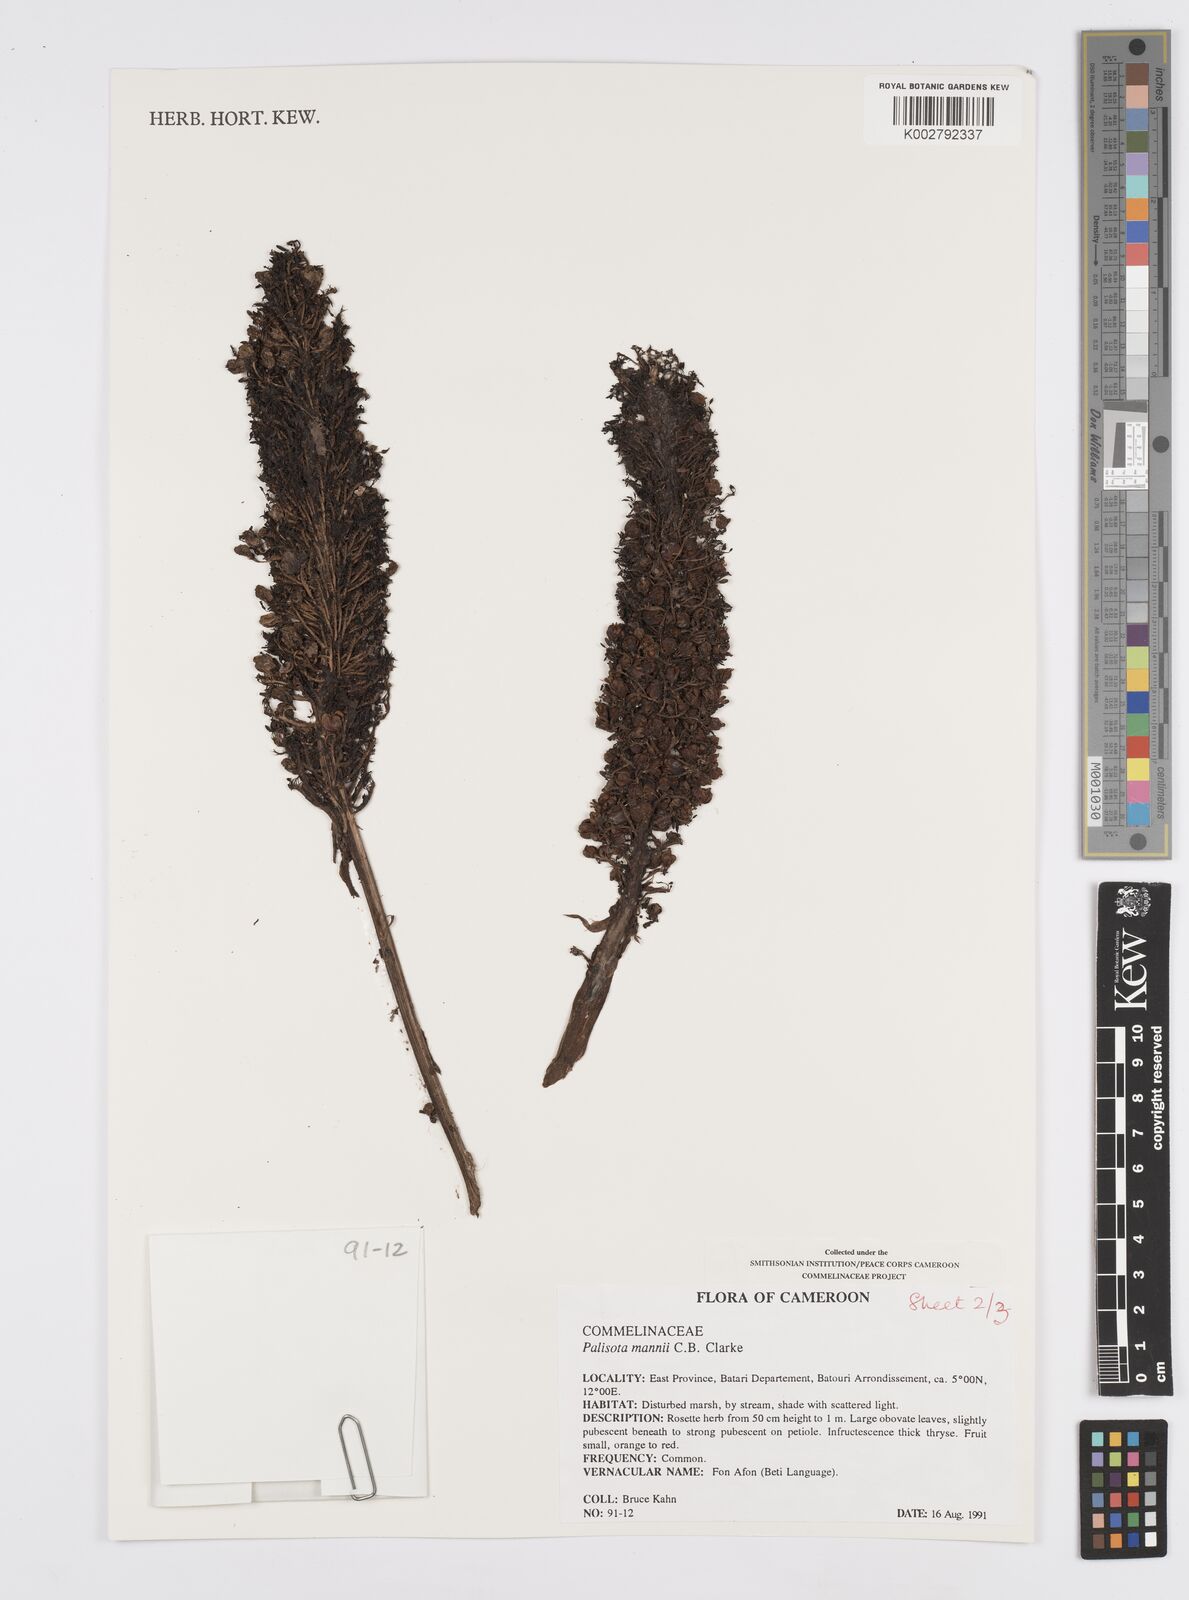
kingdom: Plantae
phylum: Tracheophyta
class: Liliopsida
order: Commelinales
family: Commelinaceae
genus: Palisota
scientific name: Palisota mannii
